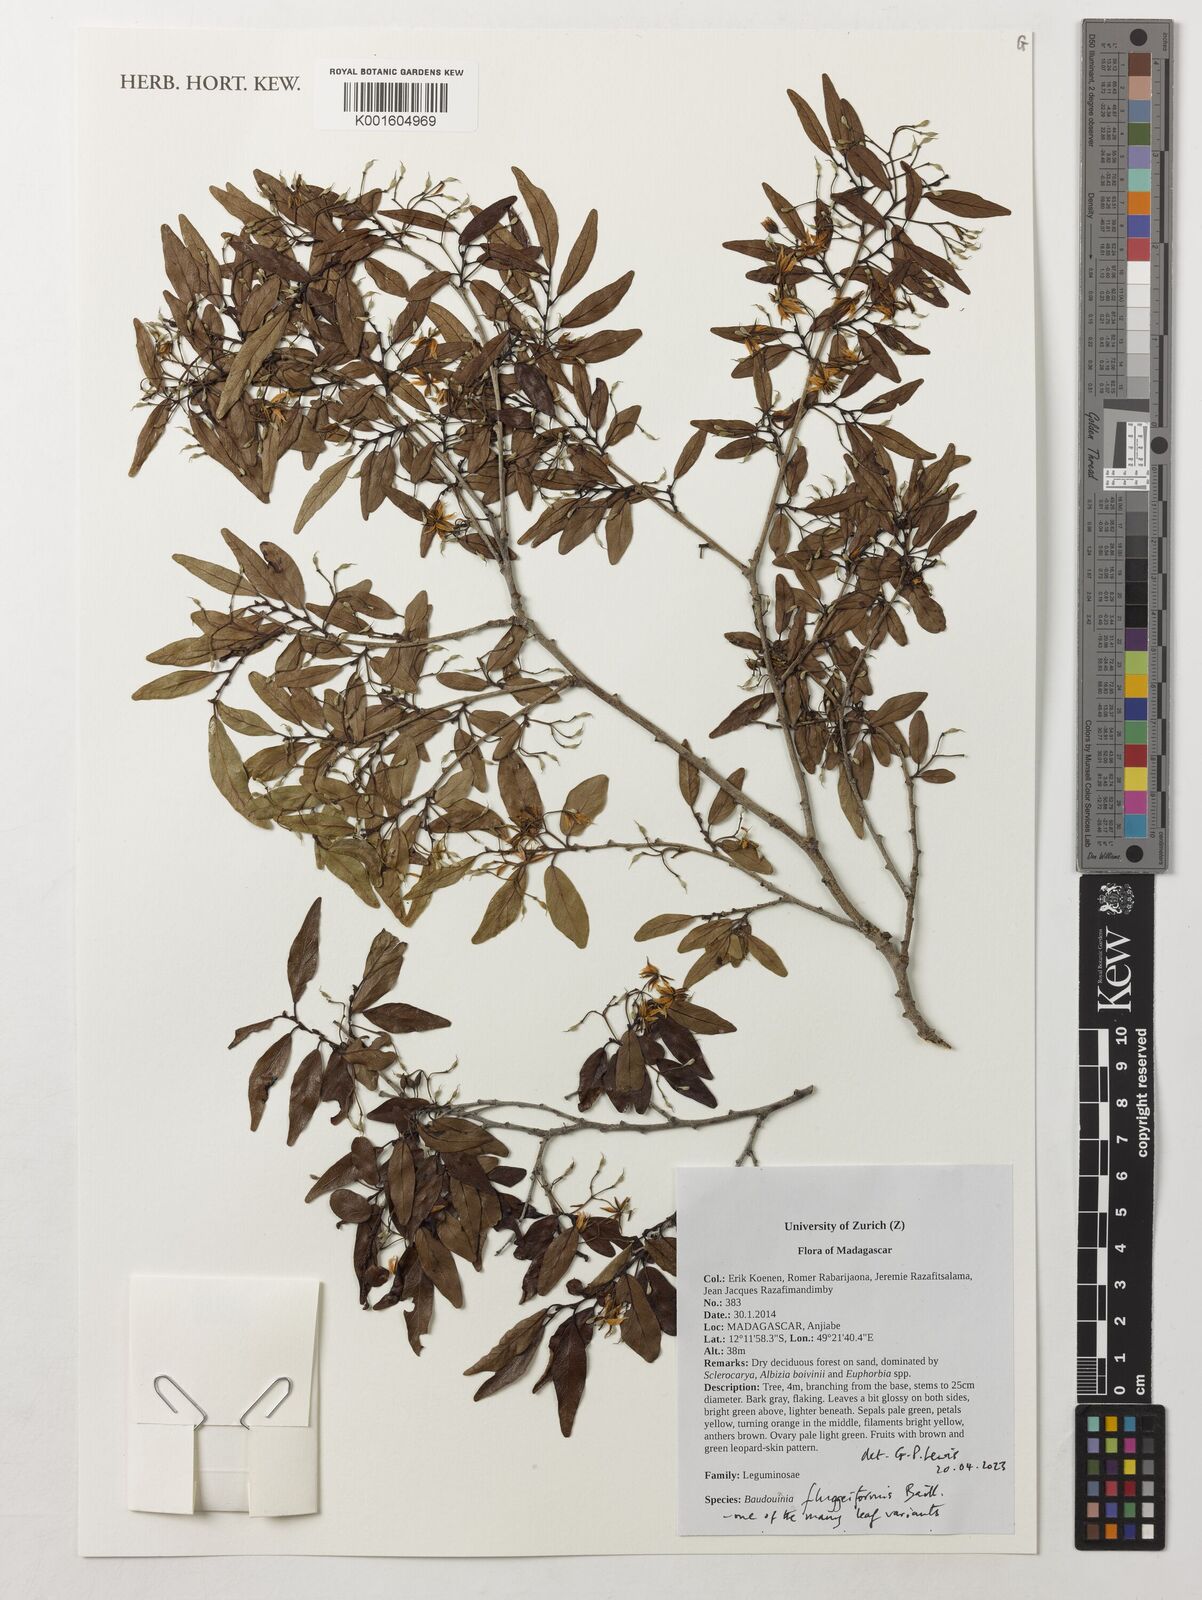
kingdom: Plantae
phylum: Tracheophyta
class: Magnoliopsida
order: Fabales
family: Fabaceae
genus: Baudouinia
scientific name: Baudouinia fluggeiformis
